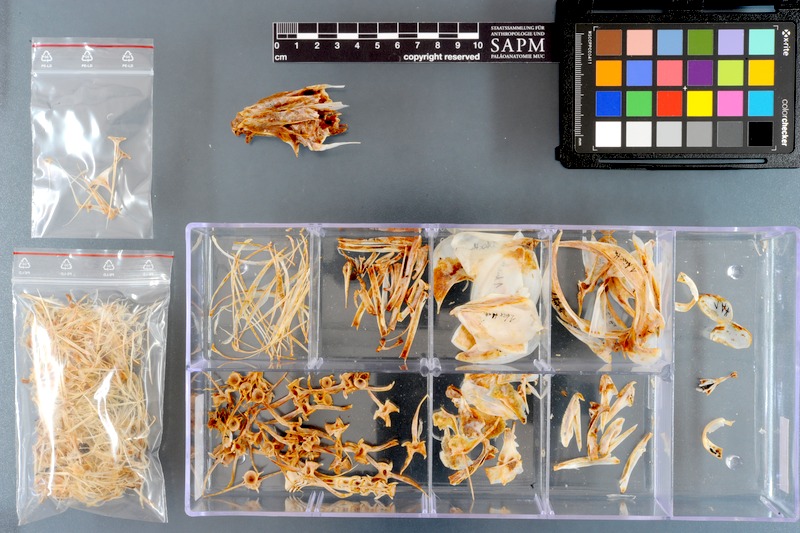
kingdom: Animalia
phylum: Chordata
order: Perciformes
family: Scombridae
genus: Auxis
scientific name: Auxis thazard
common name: Frigate mackerel
